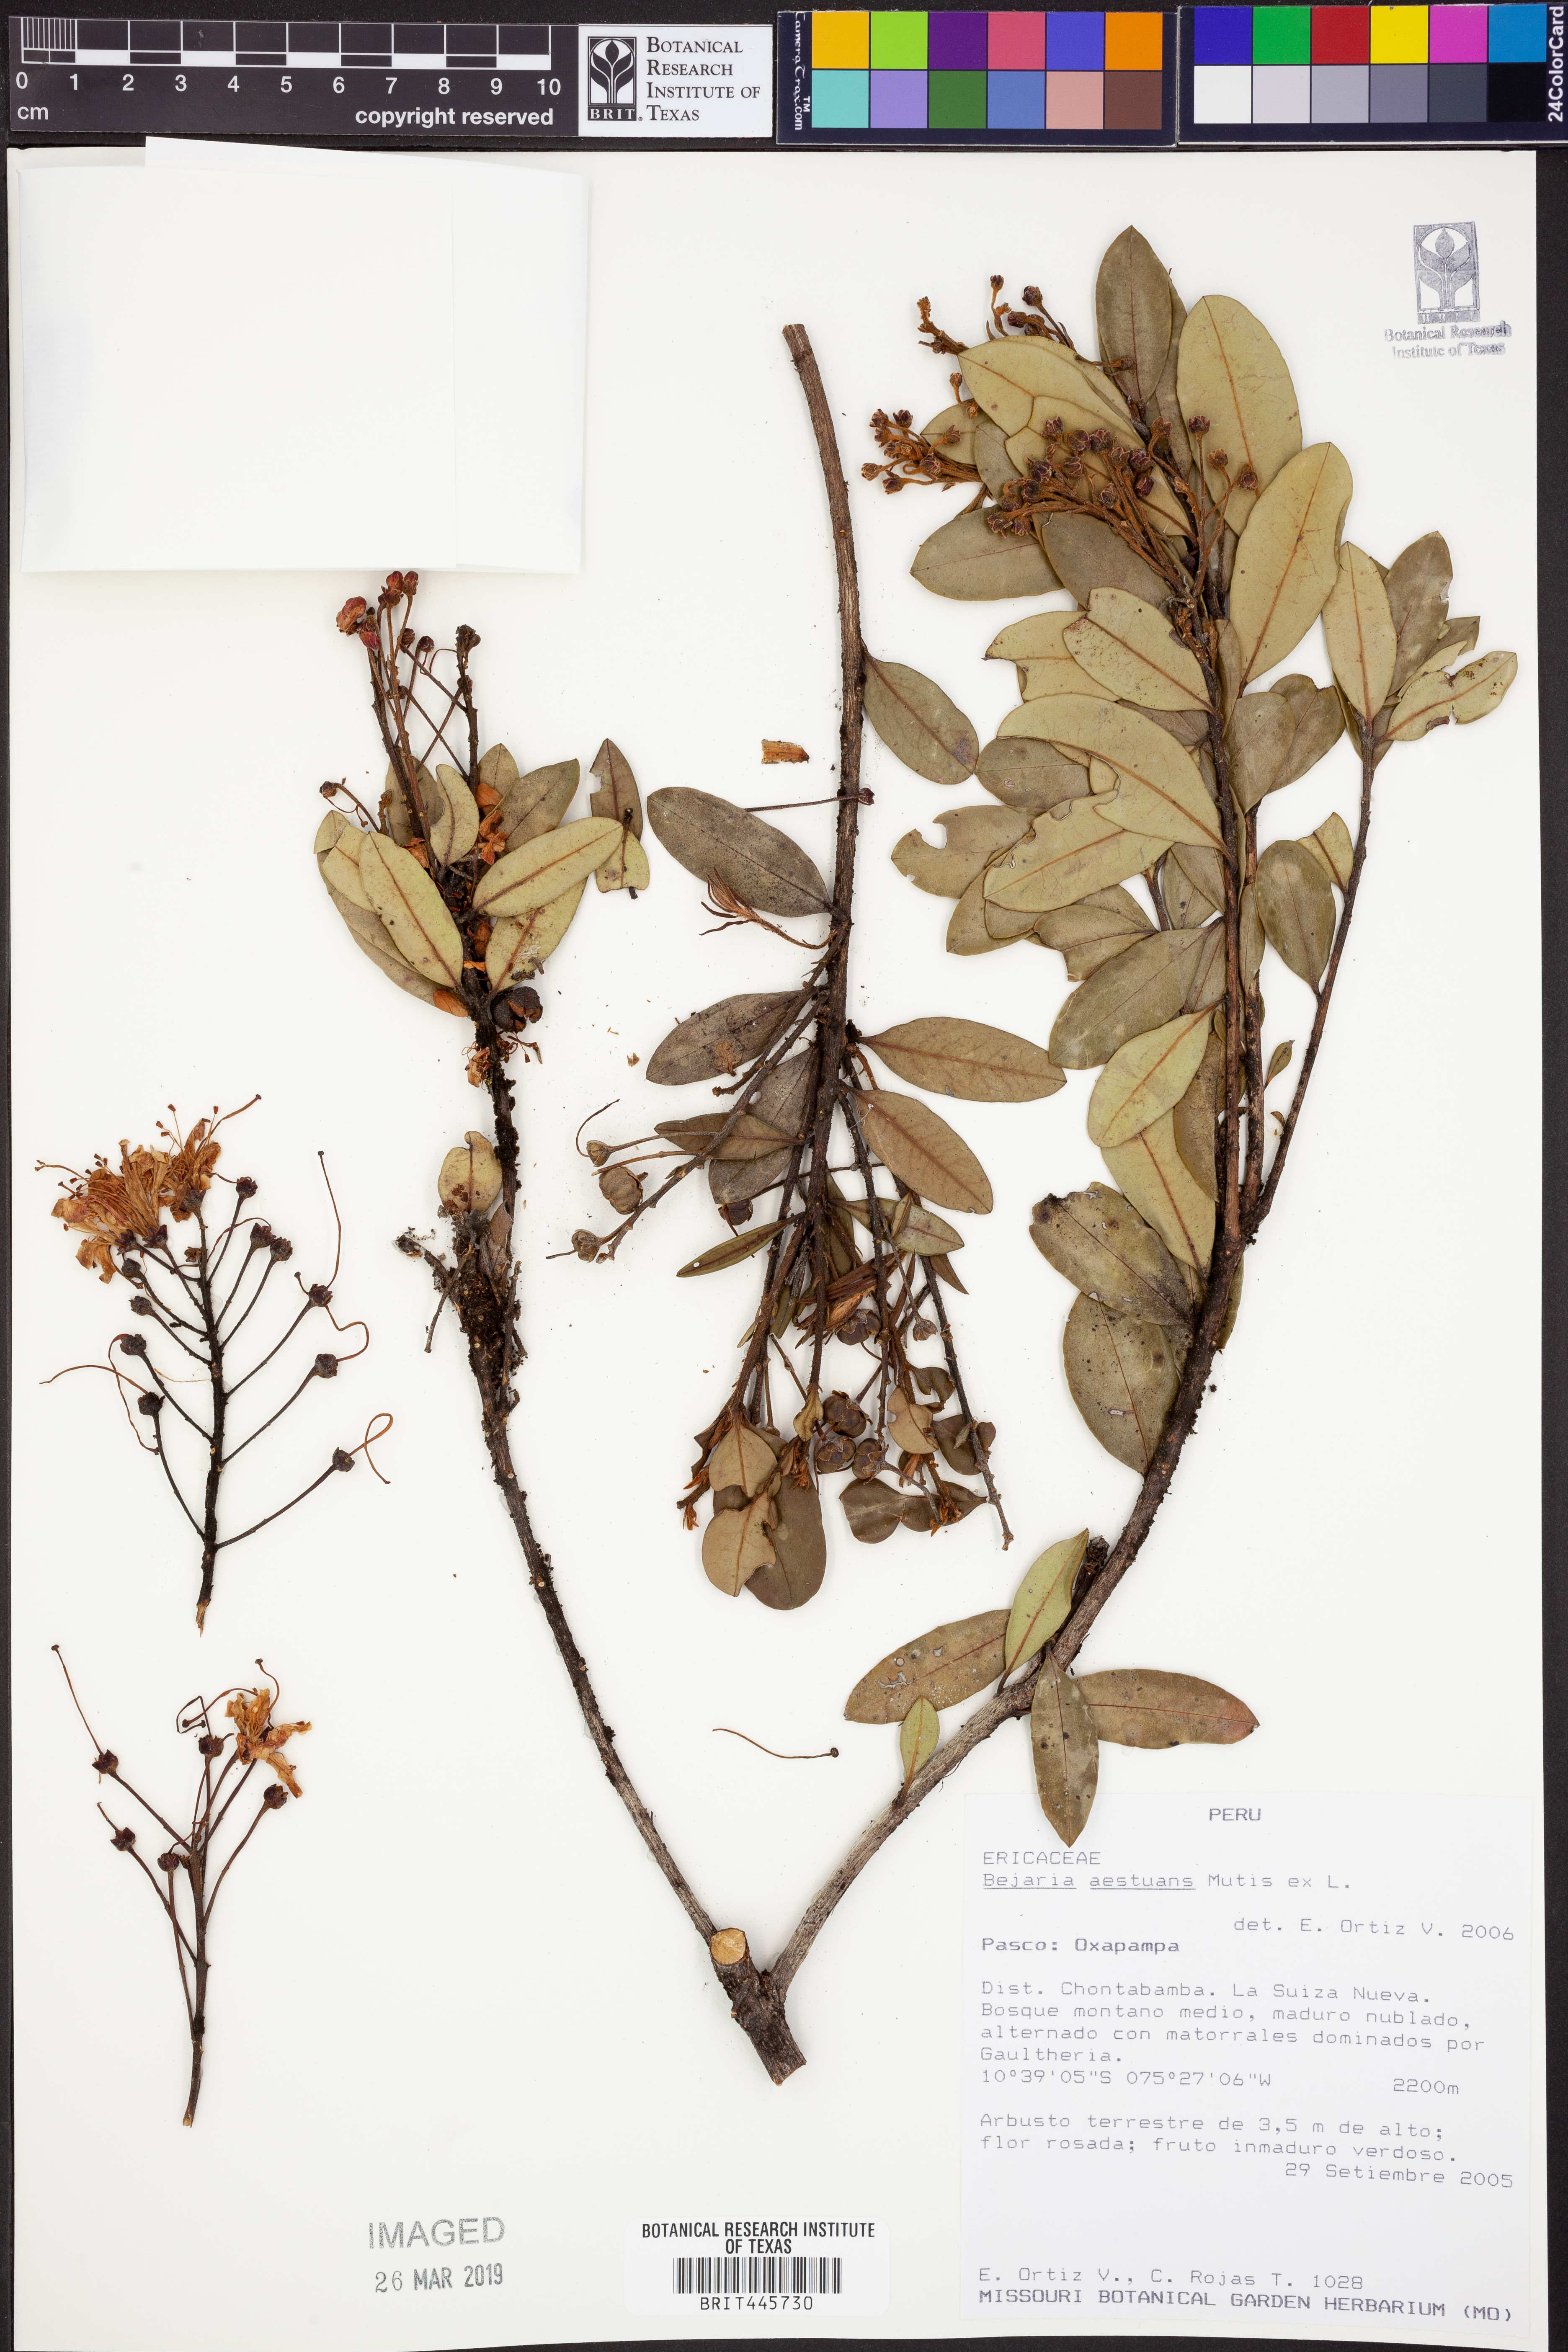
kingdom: Plantae
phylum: Tracheophyta
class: Magnoliopsida
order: Ericales
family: Ericaceae
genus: Bejaria
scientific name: Bejaria aestuans
